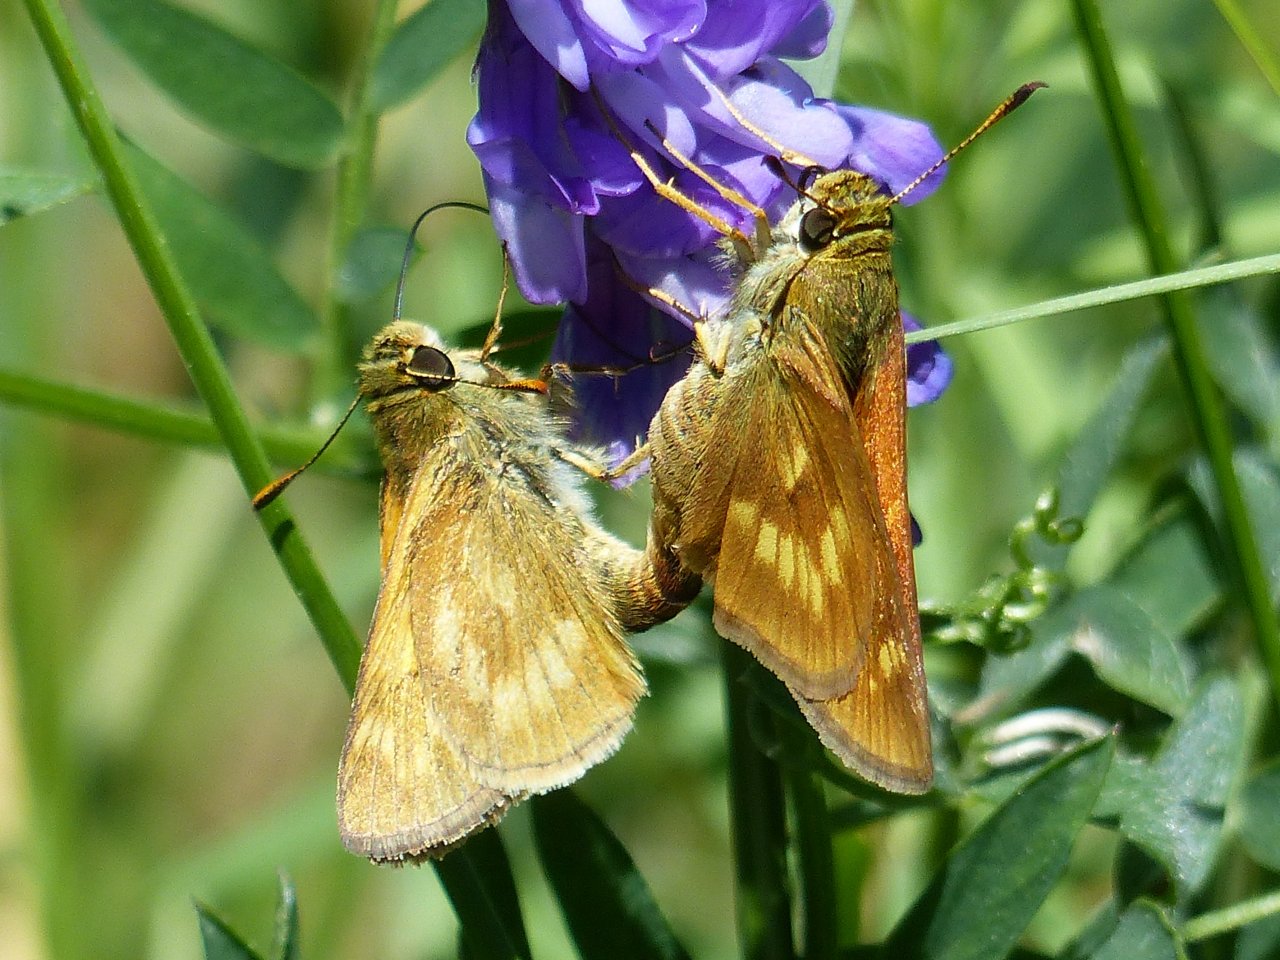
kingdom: Animalia
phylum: Arthropoda
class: Insecta
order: Lepidoptera
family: Hesperiidae
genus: Polites
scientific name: Polites
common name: Long Dash Skipper
